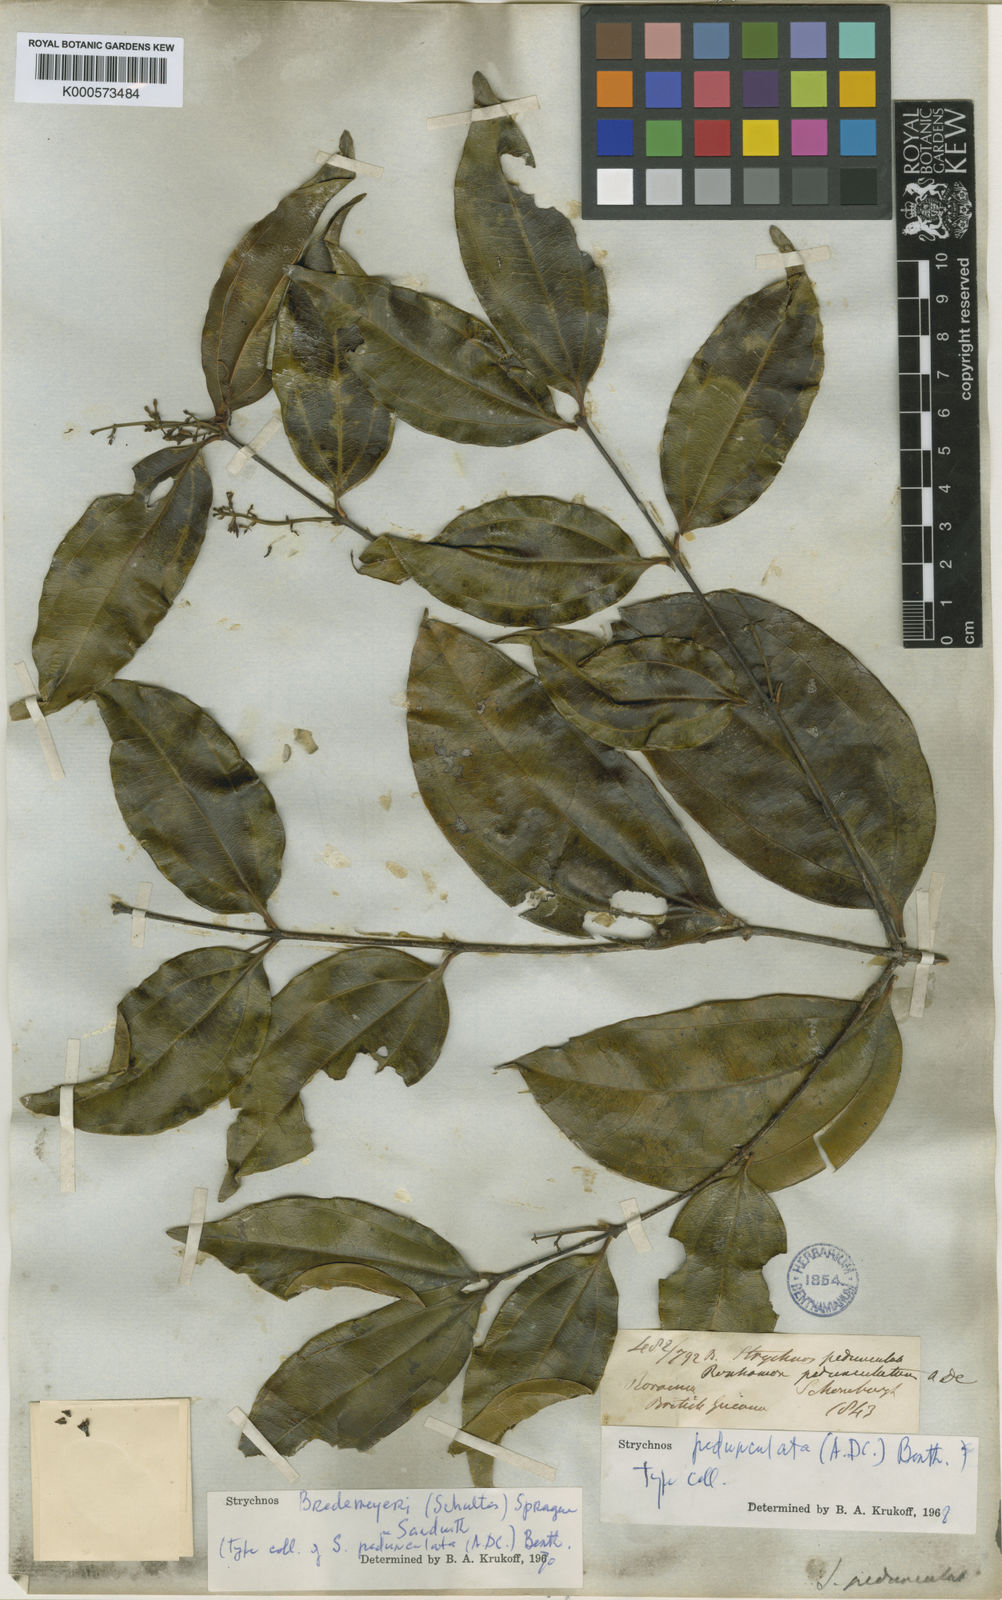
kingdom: Plantae
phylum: Tracheophyta
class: Magnoliopsida
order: Gentianales
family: Loganiaceae
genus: Strychnos
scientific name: Strychnos bredemeyeri
